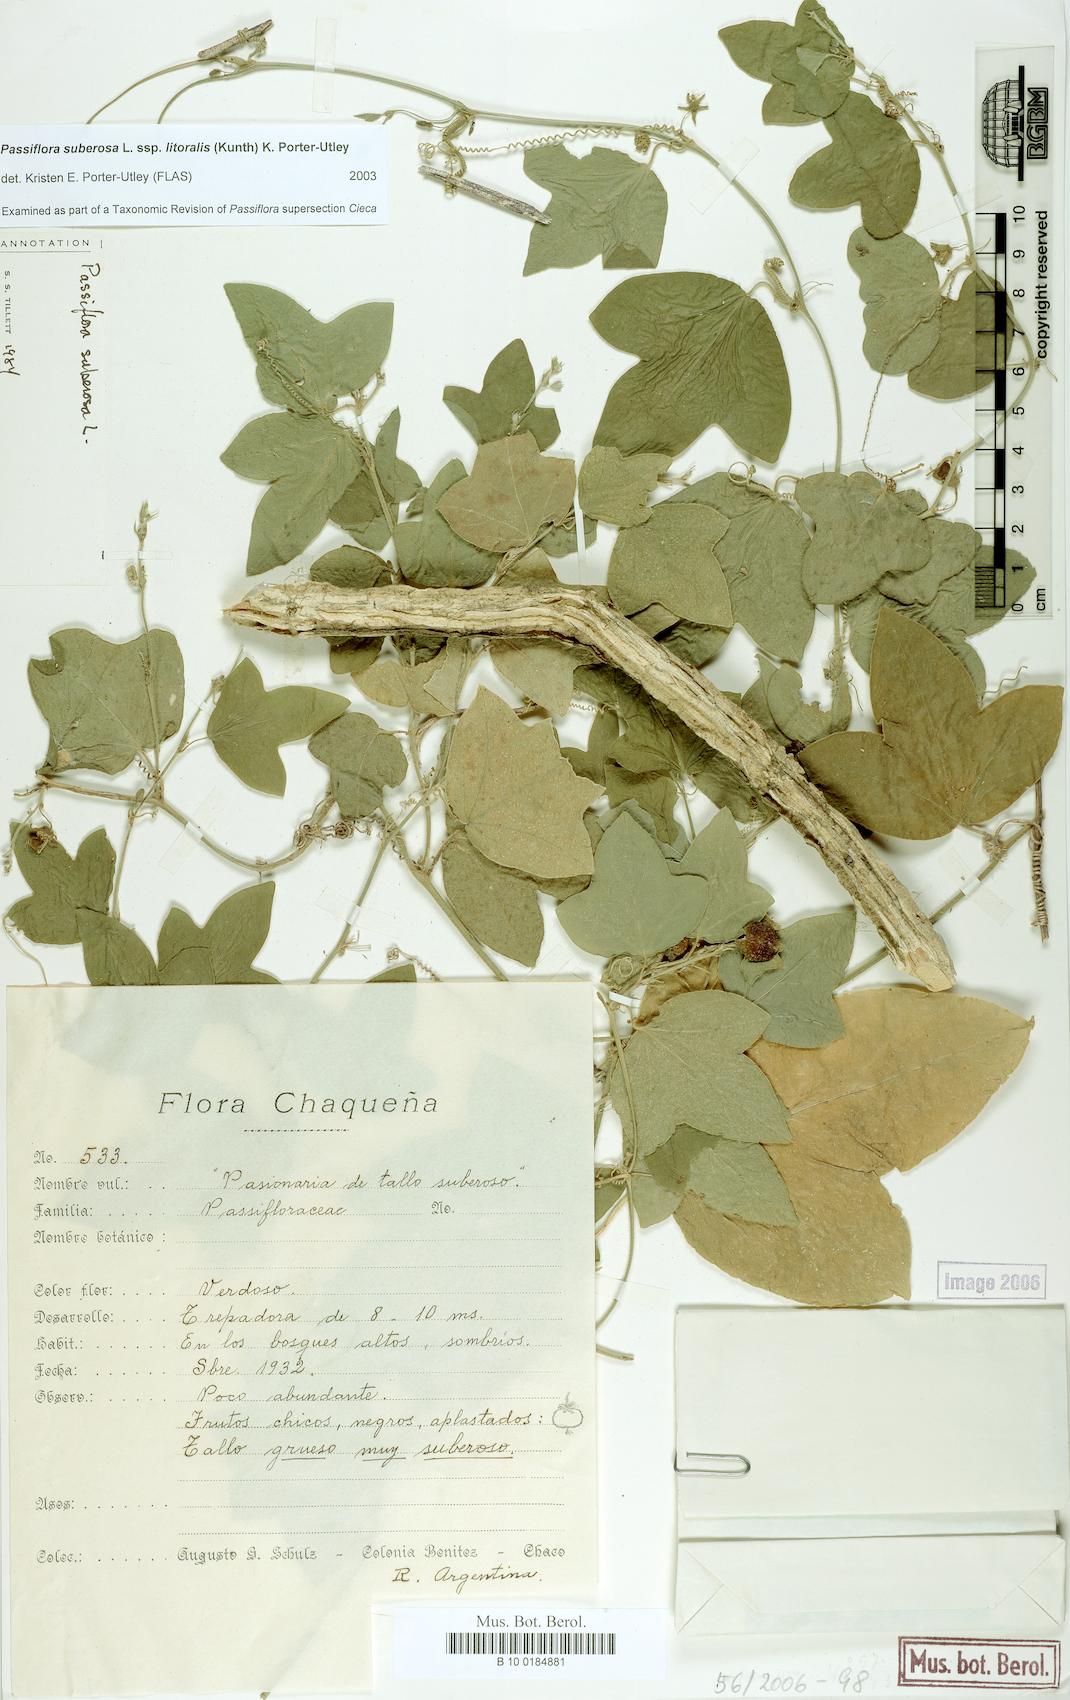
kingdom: Plantae
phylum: Tracheophyta
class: Magnoliopsida
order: Malpighiales
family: Passifloraceae
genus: Passiflora
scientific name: Passiflora suberosa
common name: Wild passionfruit
